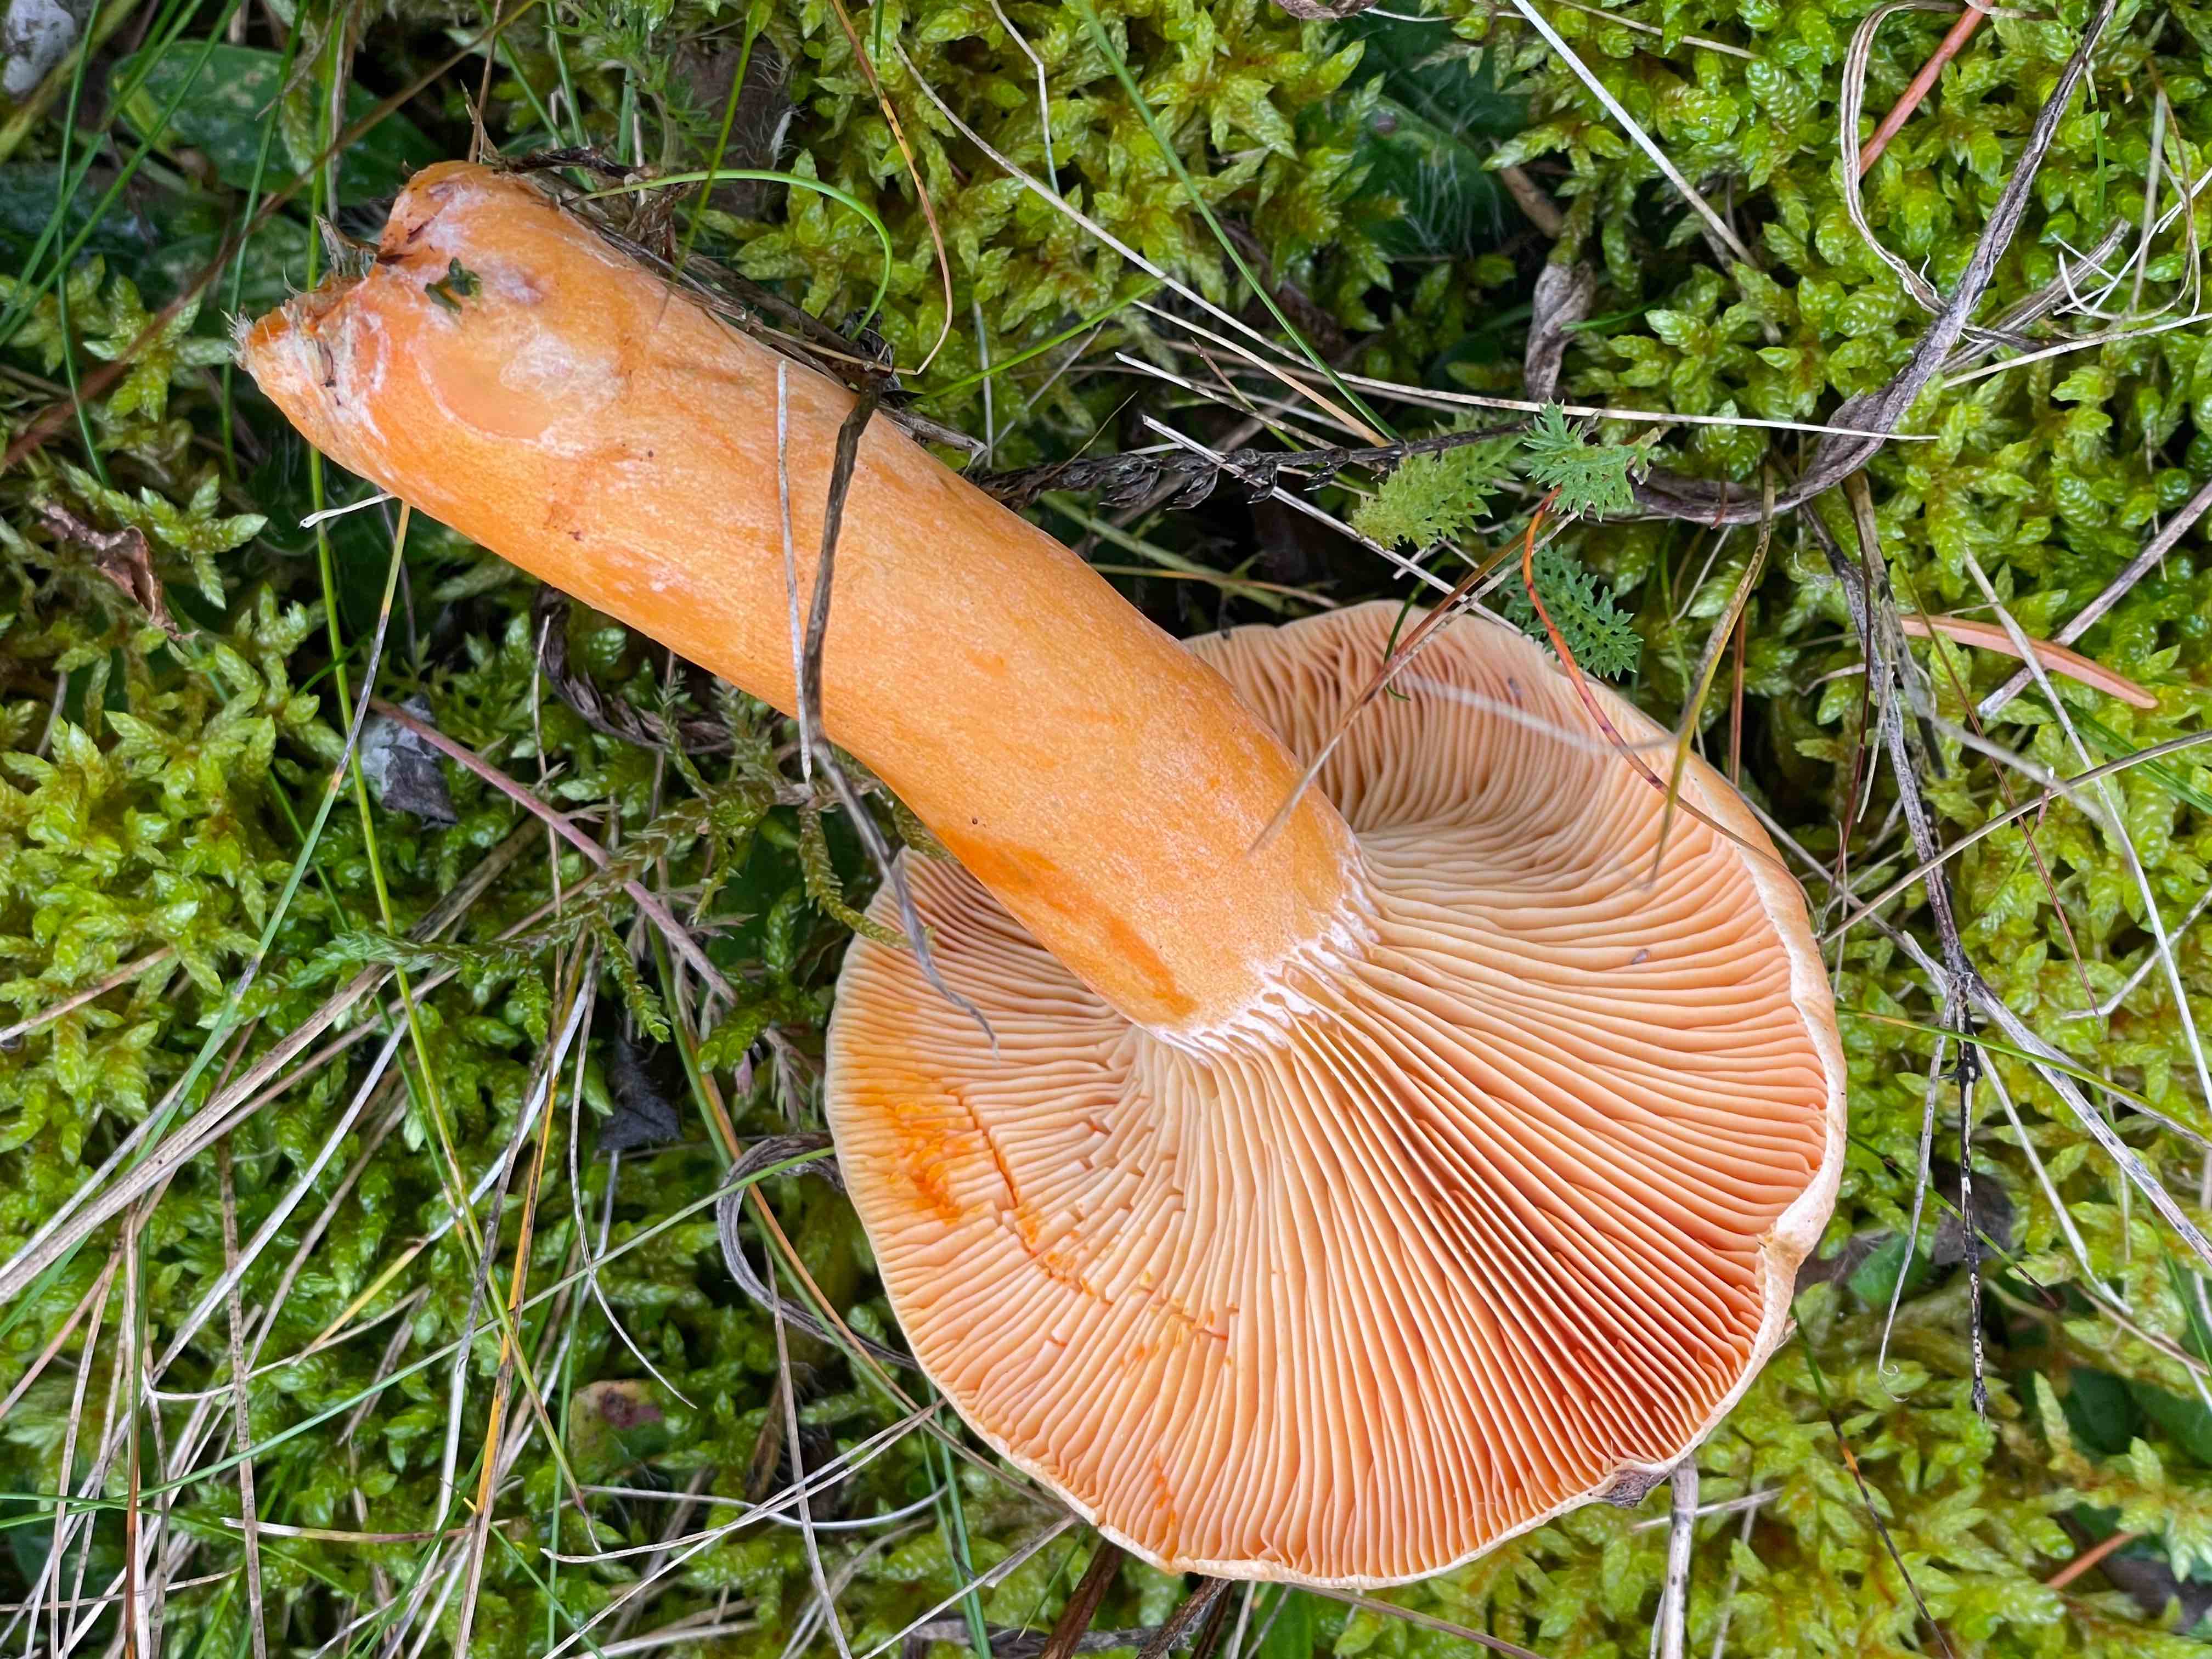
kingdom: Fungi
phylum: Basidiomycota
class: Agaricomycetes
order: Russulales
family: Russulaceae
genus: Lactarius
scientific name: Lactarius deterrimus
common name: gran-mælkehat
